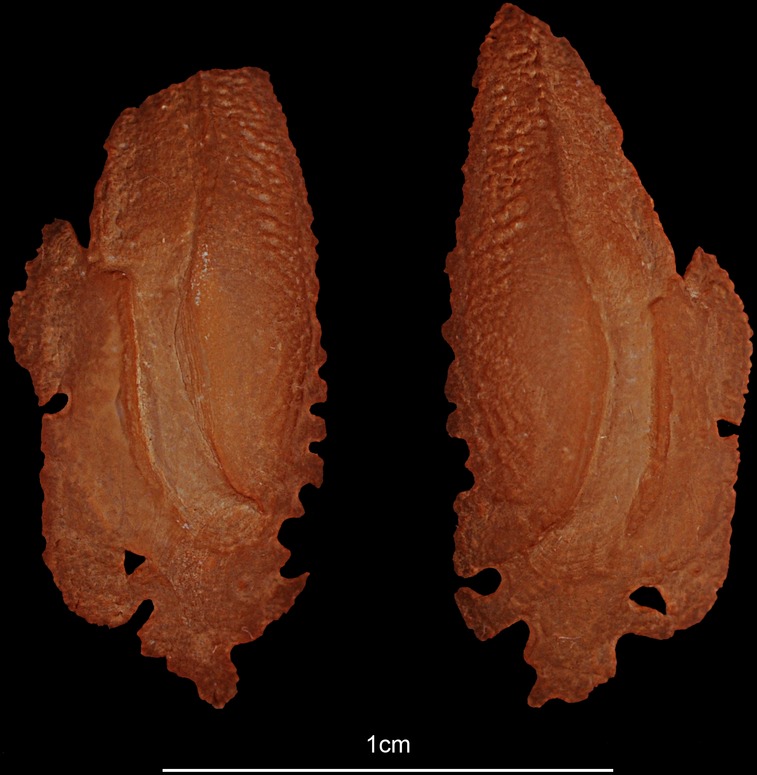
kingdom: Animalia
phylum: Chordata
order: Perciformes
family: Latidae
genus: Lates
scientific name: Lates niloticus
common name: Nile perch
